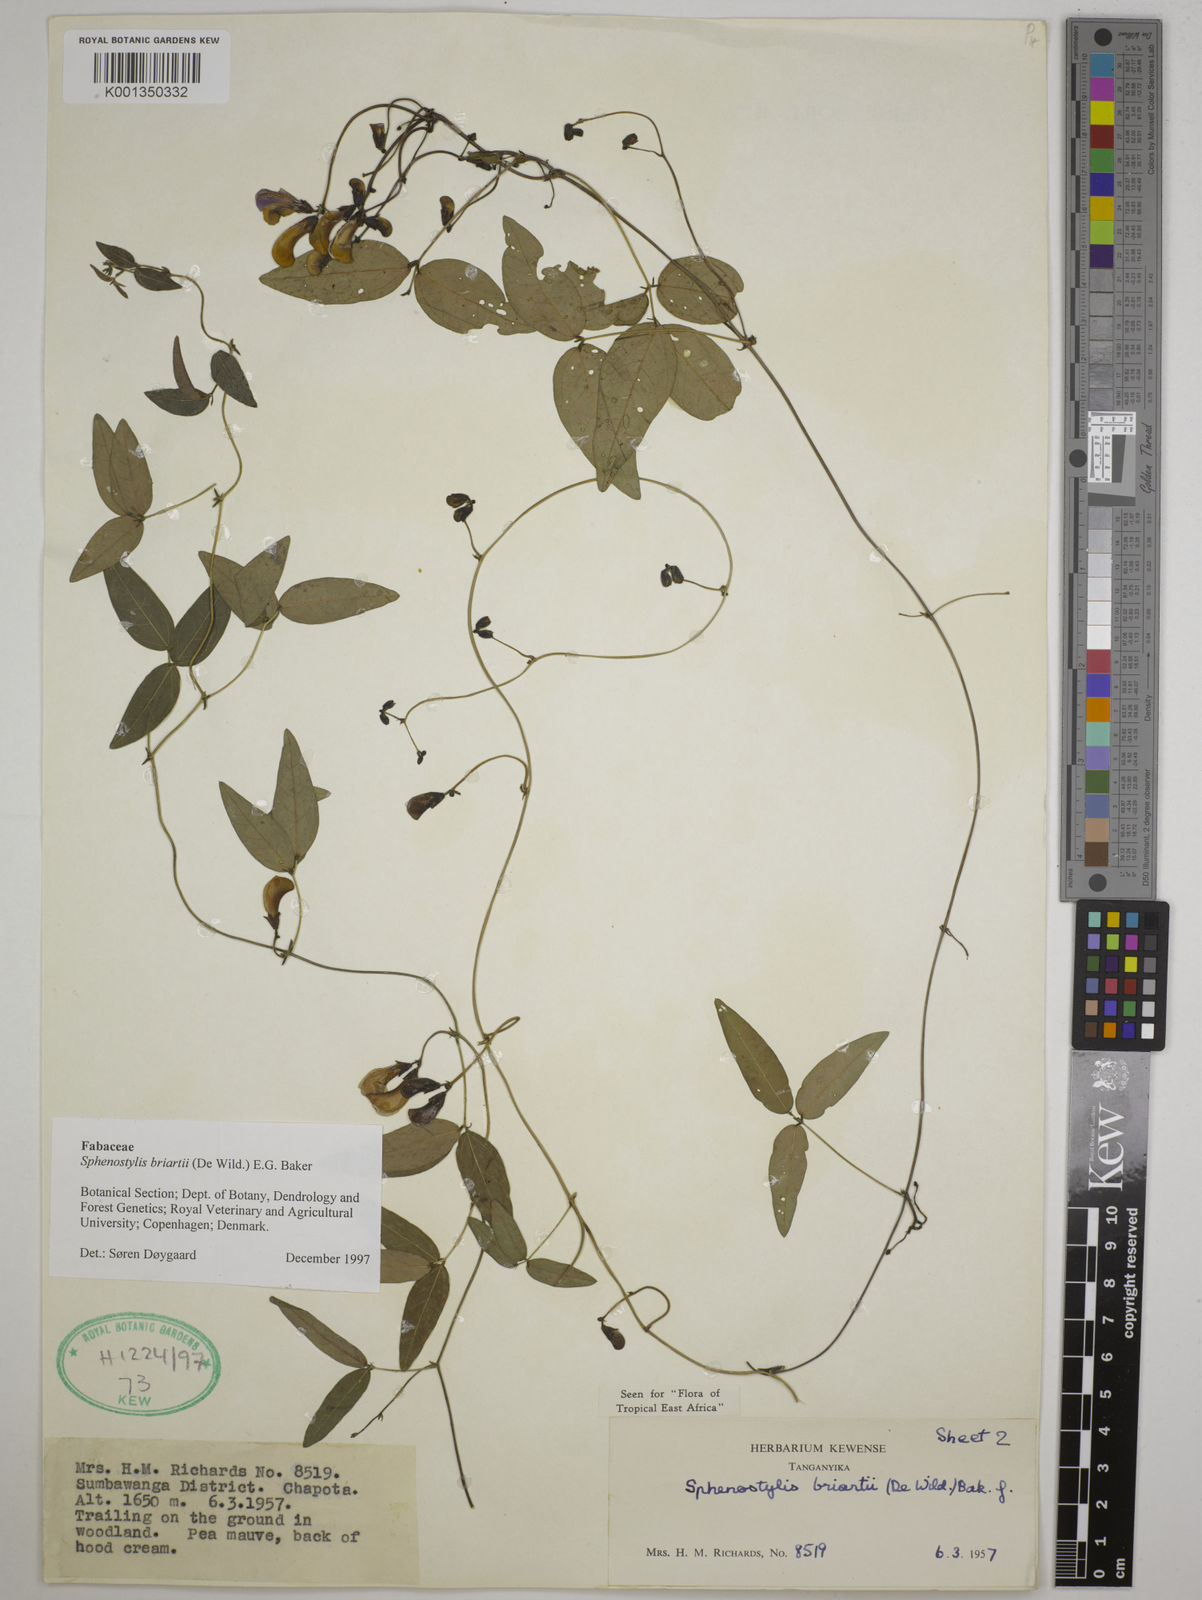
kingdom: Plantae
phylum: Tracheophyta
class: Magnoliopsida
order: Fabales
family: Fabaceae
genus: Sphenostylis
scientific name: Sphenostylis briartii
